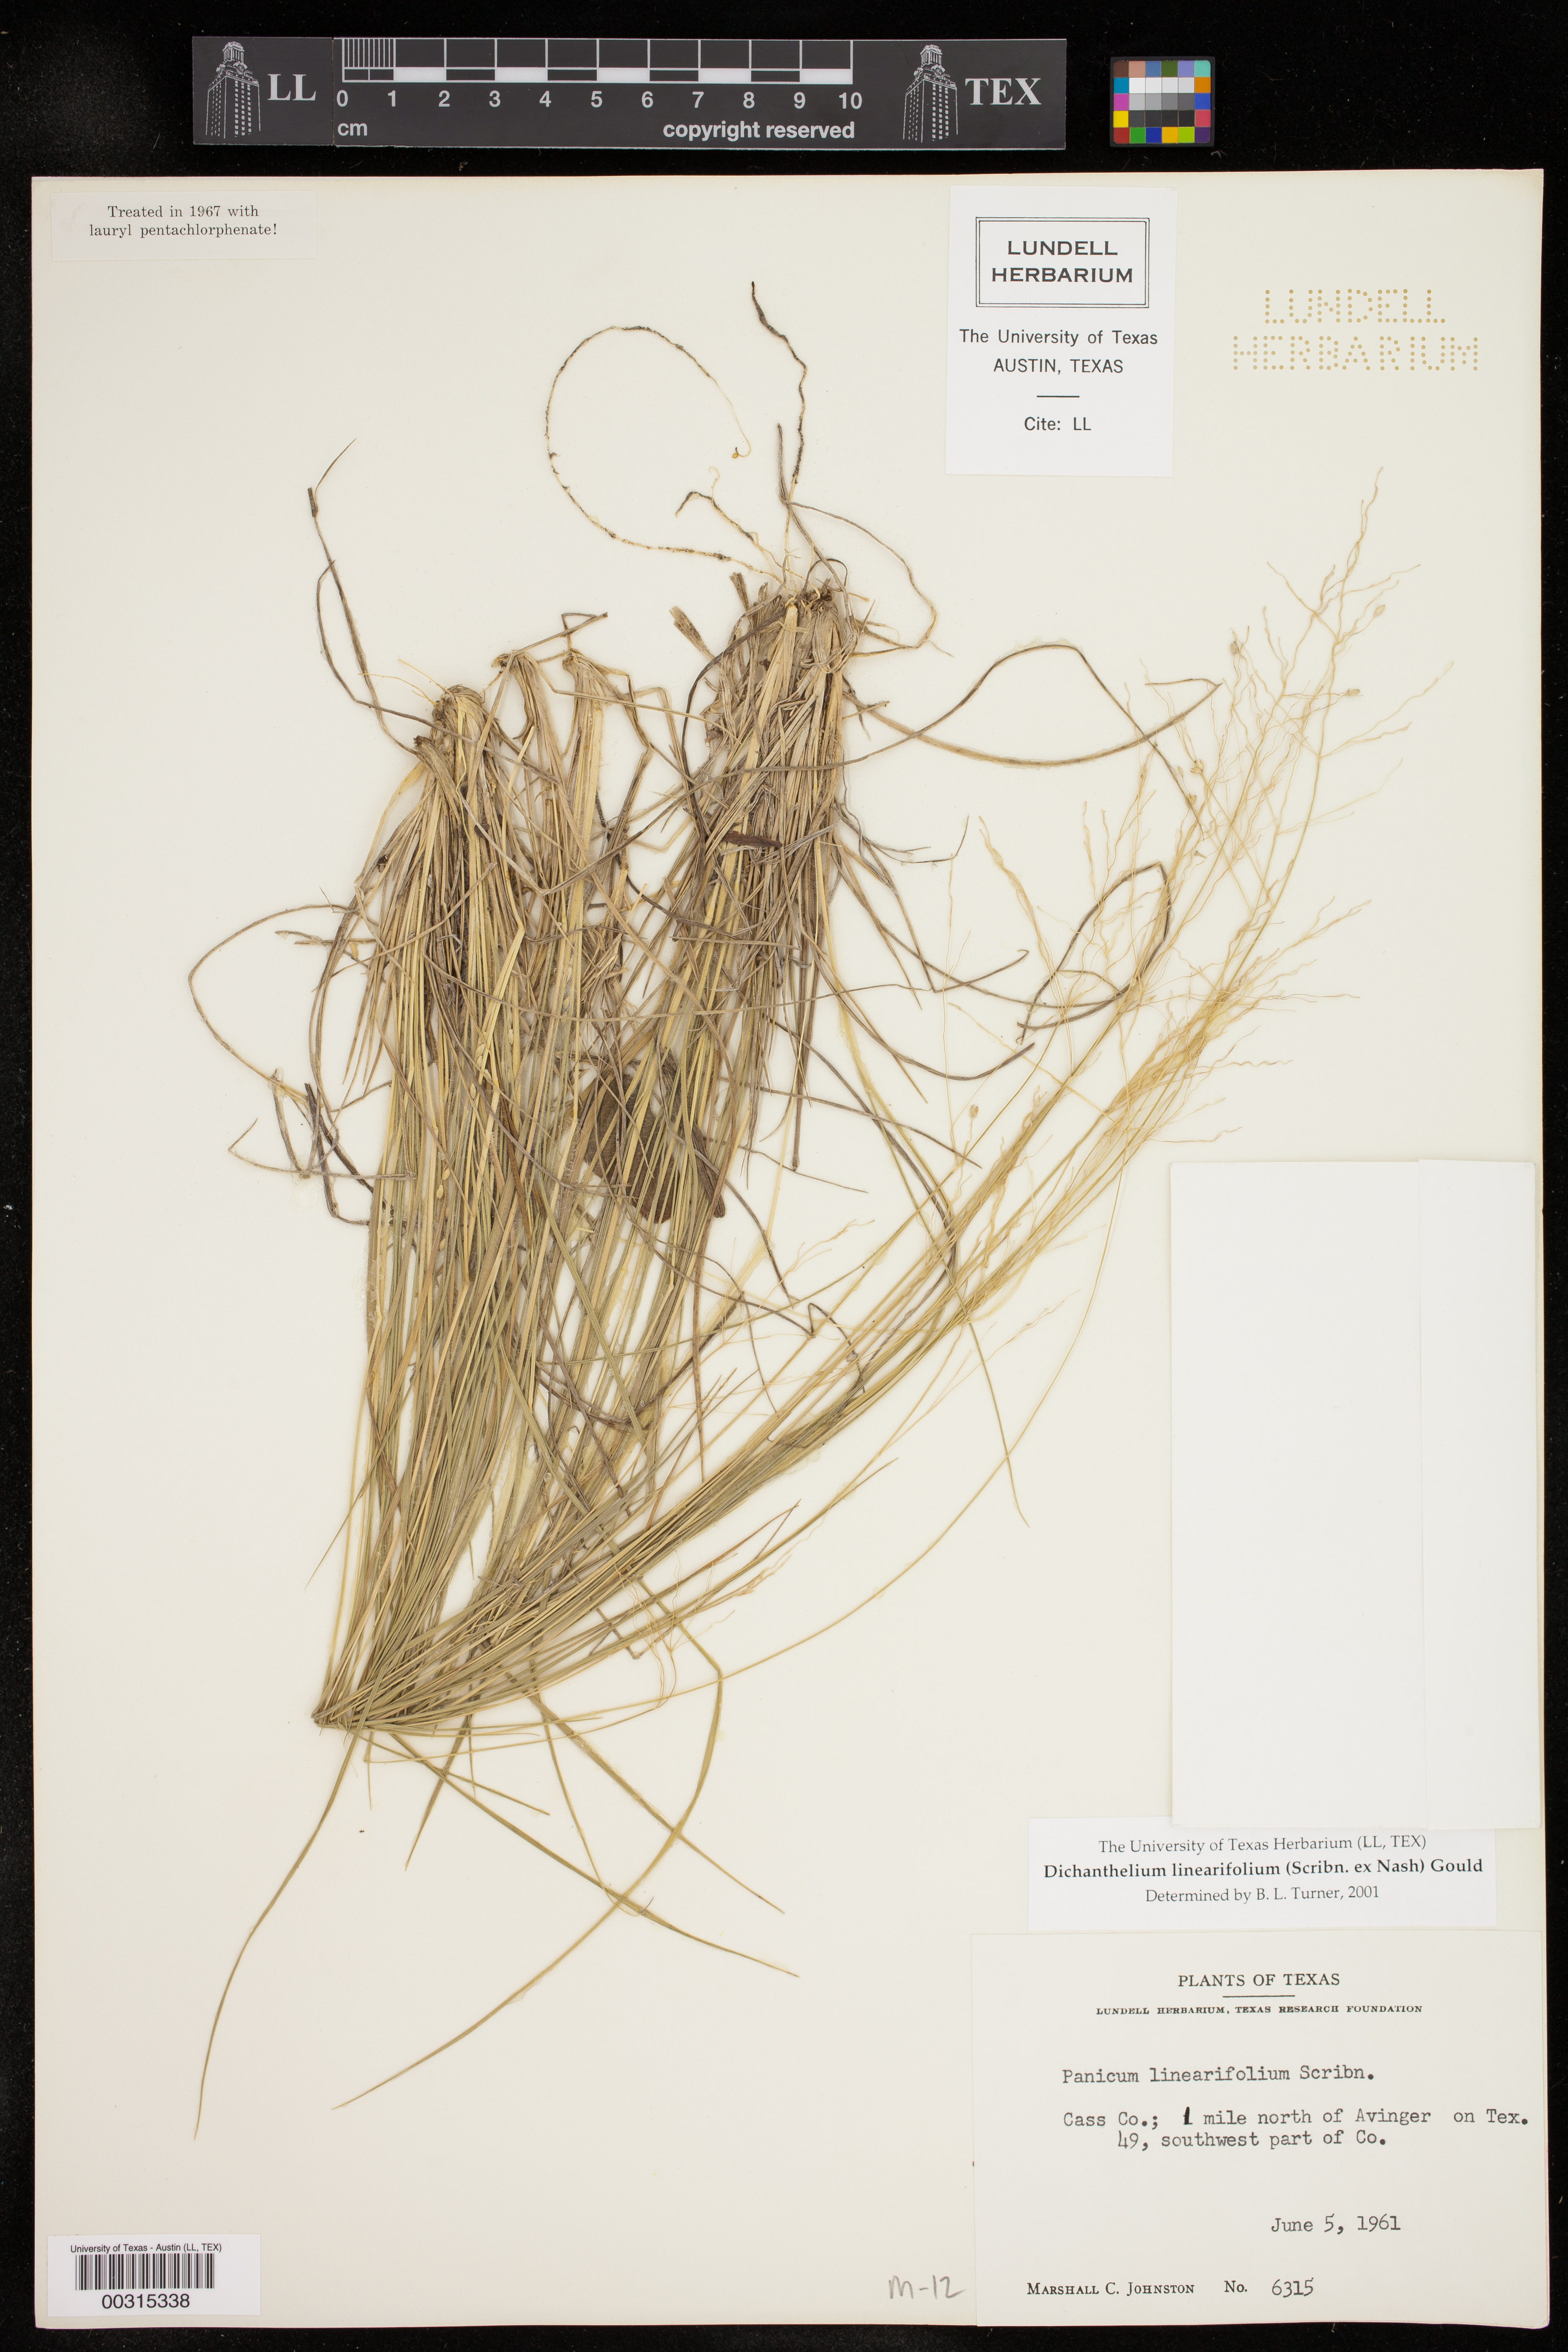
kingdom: Plantae
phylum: Tracheophyta
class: Liliopsida
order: Poales
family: Poaceae
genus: Dichanthelium
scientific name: Dichanthelium linearifolium
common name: Linear-leaved panicgrass
